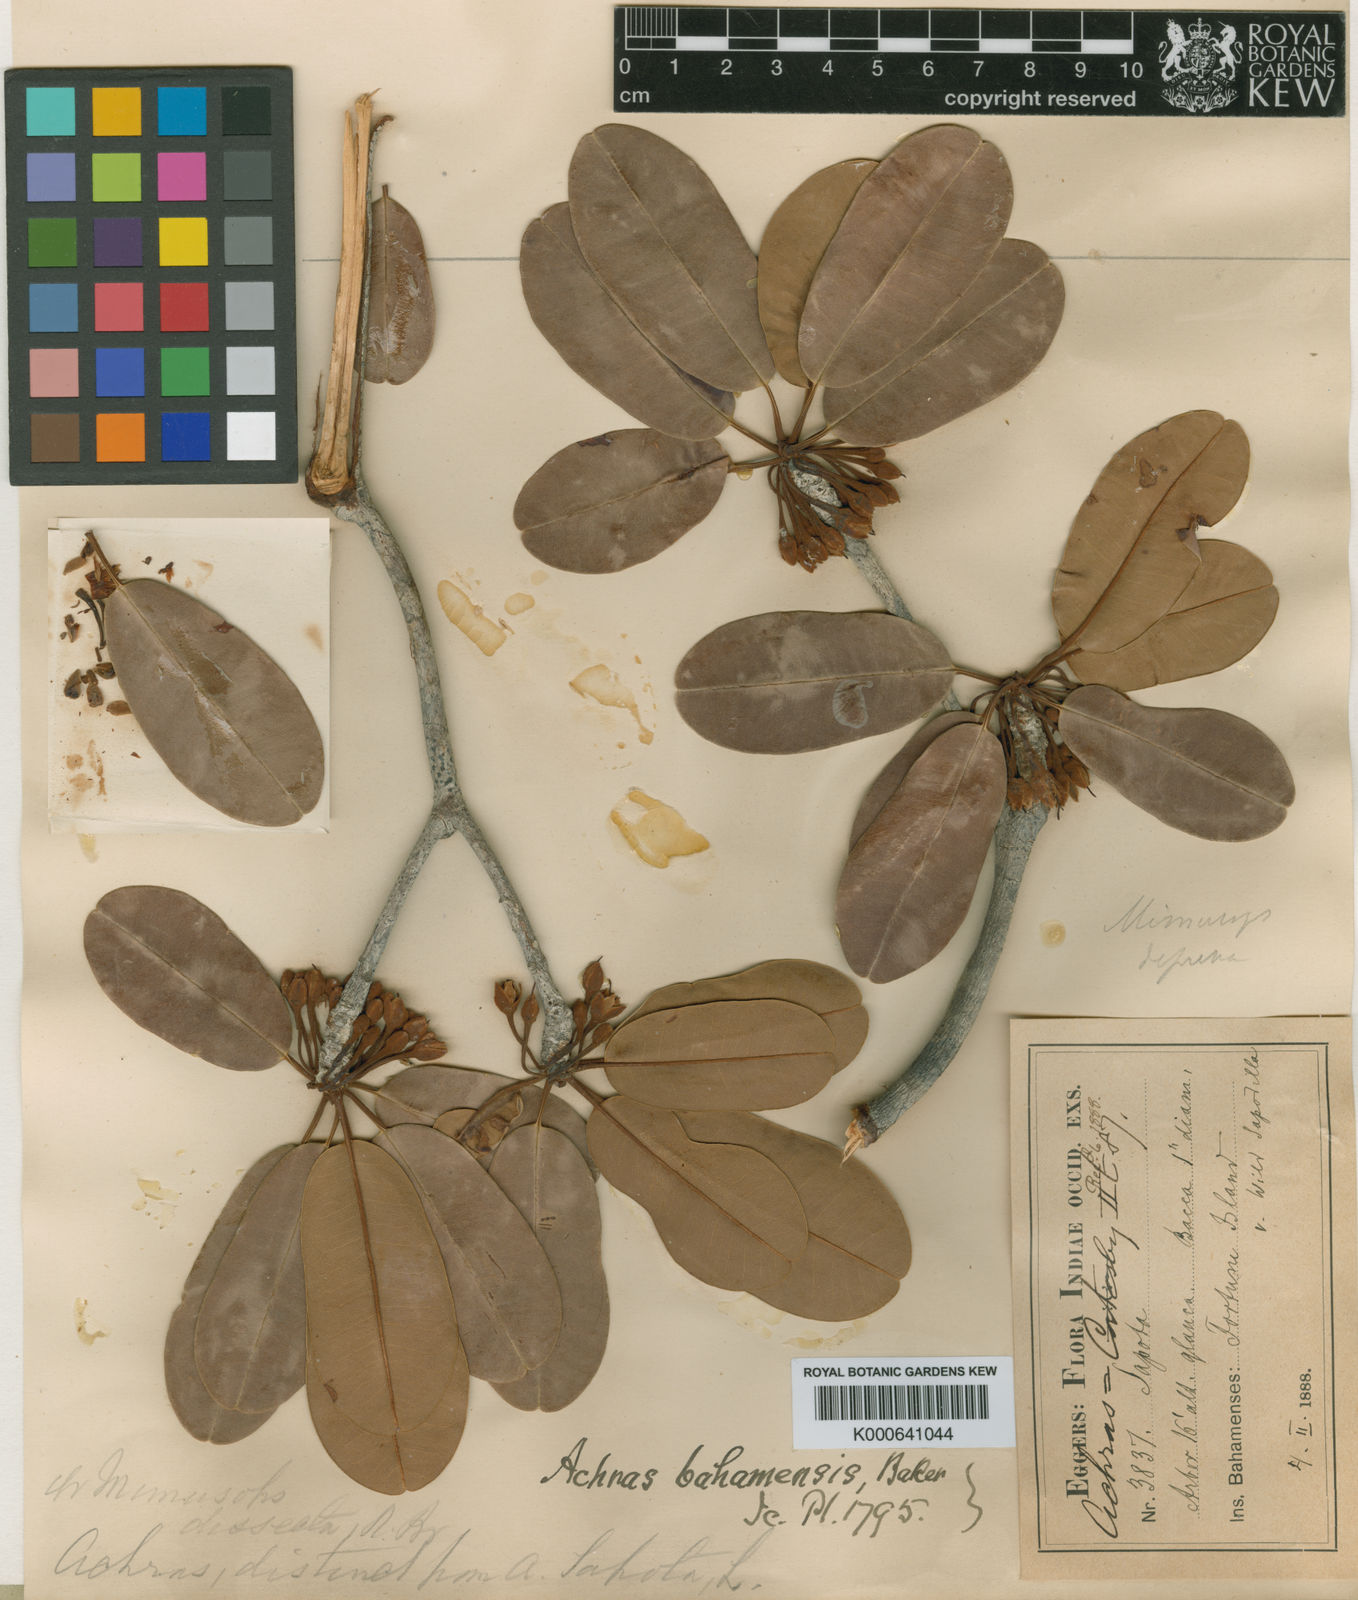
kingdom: Plantae
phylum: Tracheophyta
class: Magnoliopsida
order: Ericales
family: Sapotaceae
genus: Manilkara
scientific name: Manilkara jaimiqui
